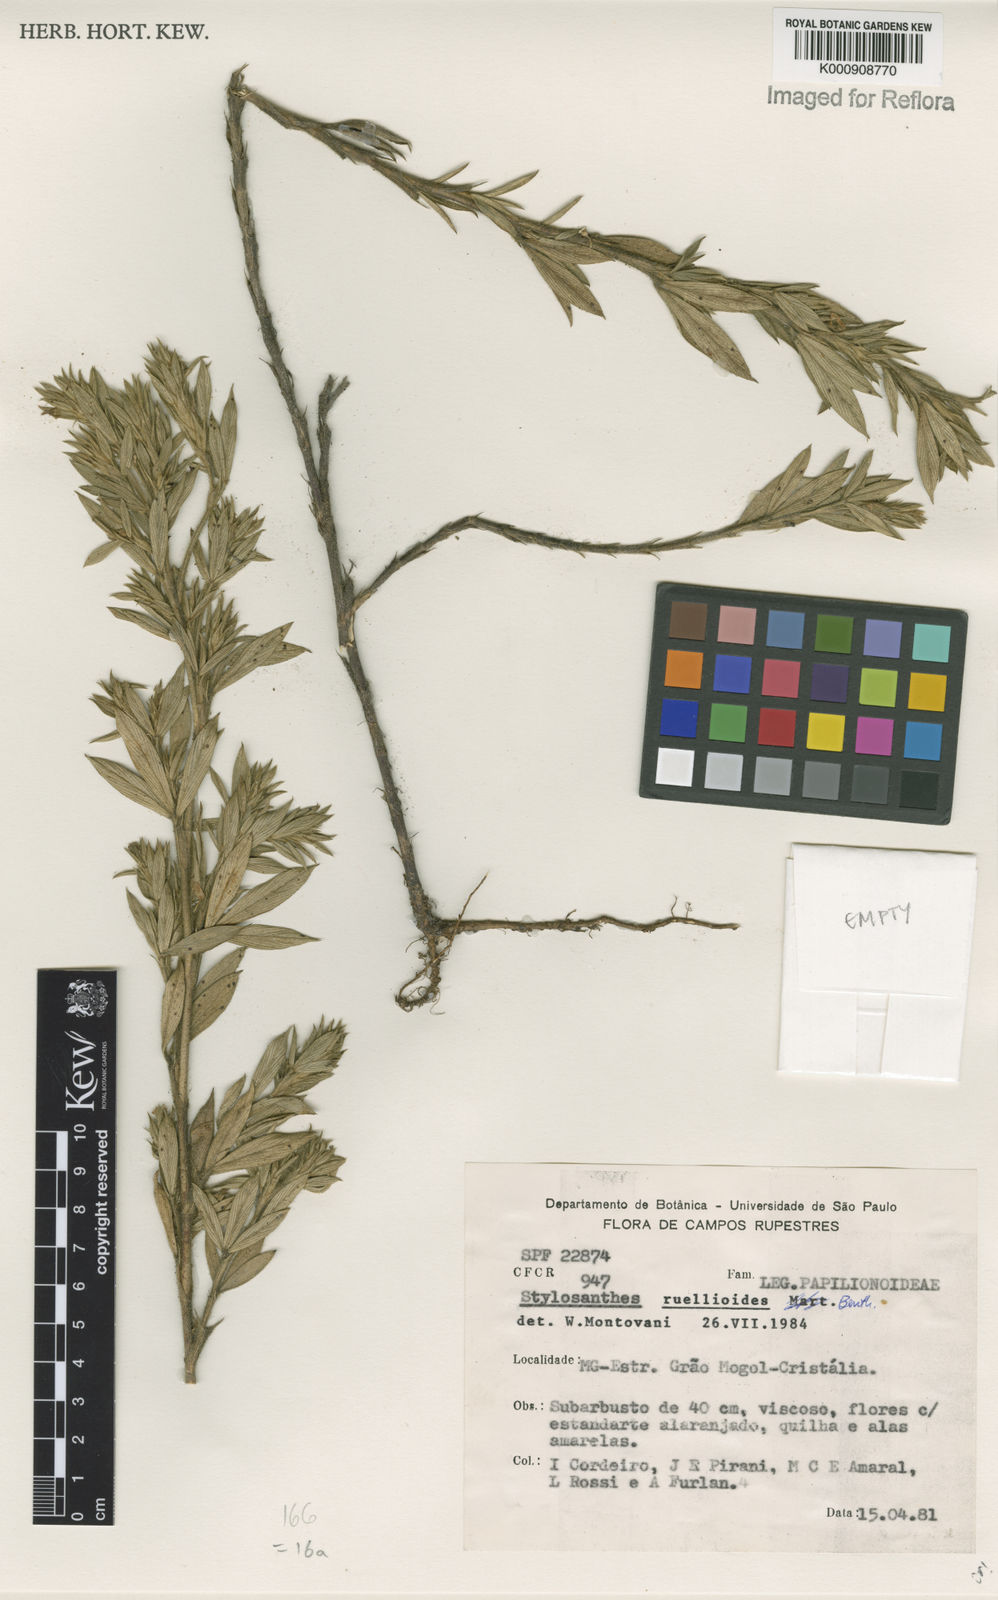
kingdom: Plantae
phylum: Tracheophyta
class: Magnoliopsida
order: Fabales
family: Fabaceae
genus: Stylosanthes
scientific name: Stylosanthes ruellioides
